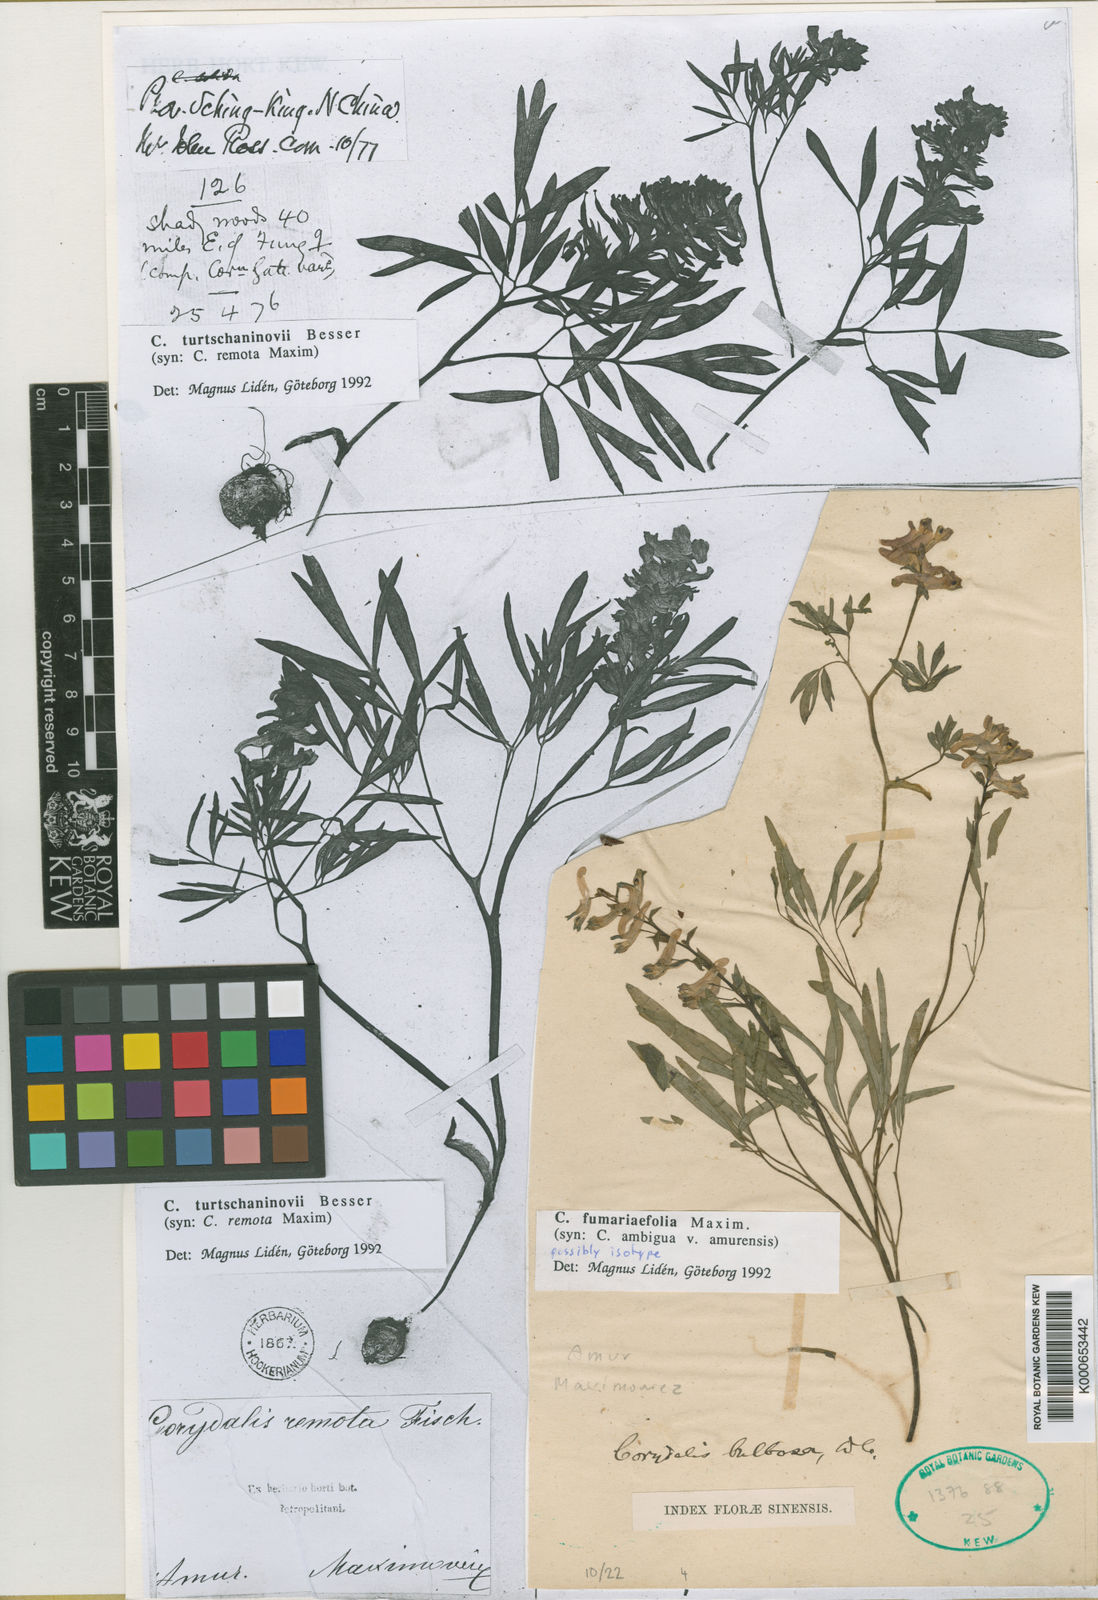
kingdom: Plantae
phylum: Tracheophyta
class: Magnoliopsida
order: Ranunculales
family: Papaveraceae
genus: Corydalis
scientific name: Corydalis fumariifolia
